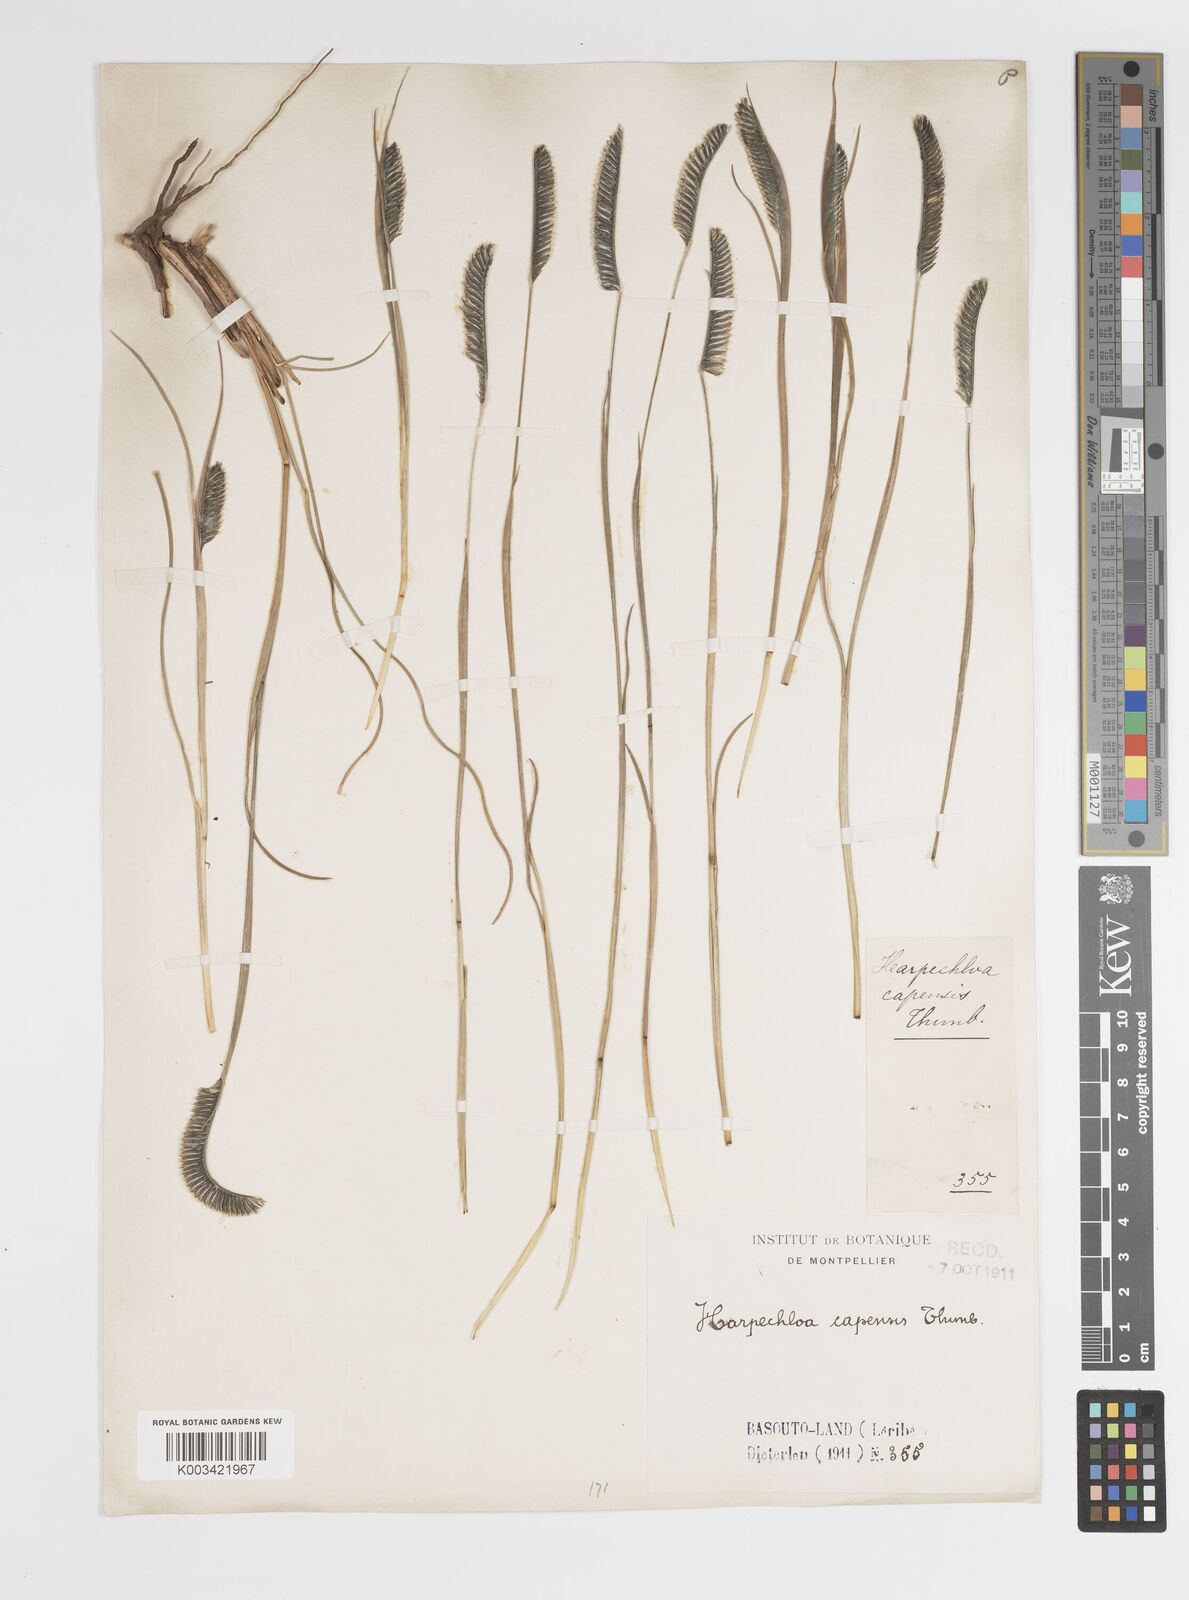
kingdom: Plantae
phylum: Tracheophyta
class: Liliopsida
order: Poales
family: Poaceae
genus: Harpochloa
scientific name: Harpochloa falx
